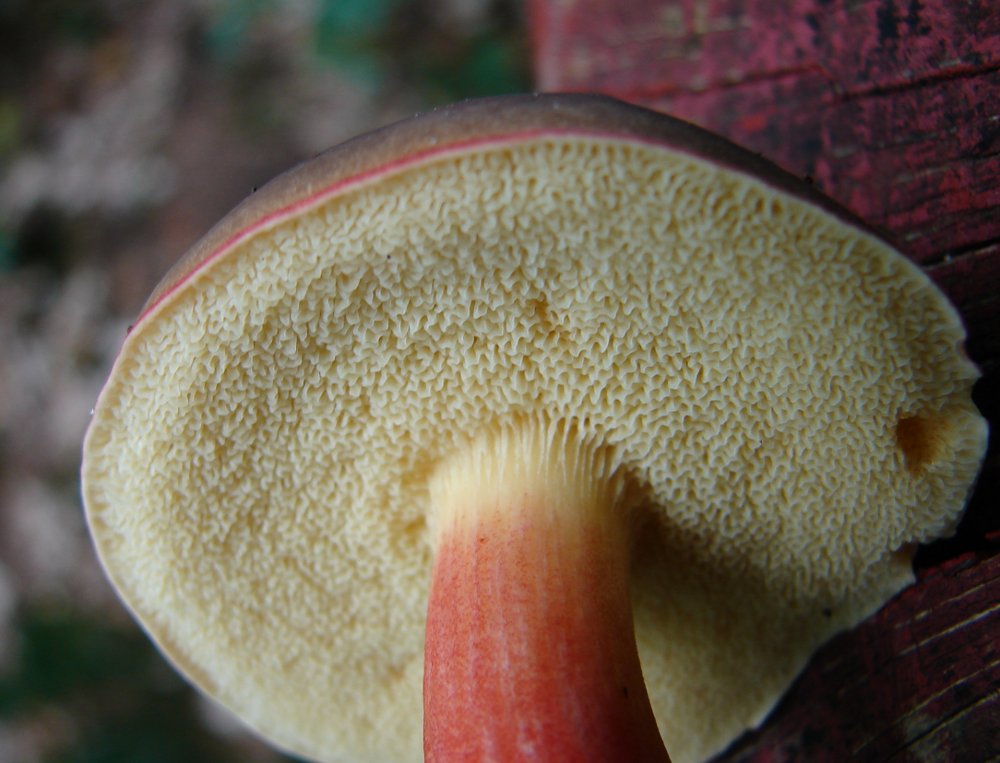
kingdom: Fungi
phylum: Basidiomycota
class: Agaricomycetes
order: Boletales
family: Boletaceae
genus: Xerocomellus
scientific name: Xerocomellus pruinatus
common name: dugget rørhat
